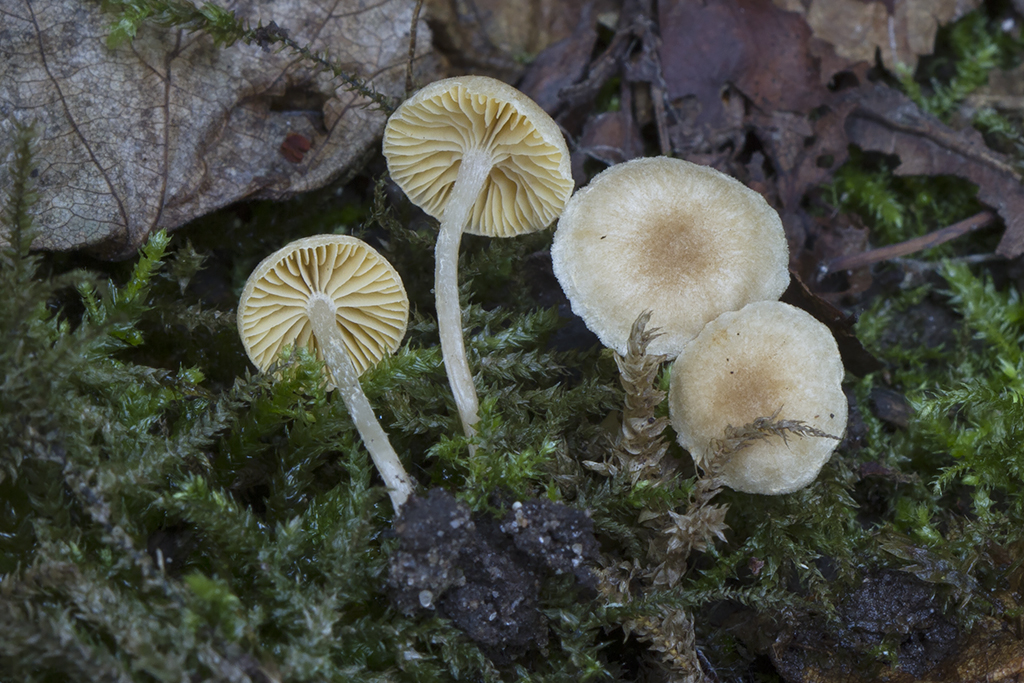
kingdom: Fungi
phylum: Basidiomycota
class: Agaricomycetes
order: Agaricales
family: Tubariaceae
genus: Tubaria
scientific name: Tubaria dispersa
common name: tjørne-fnughat
